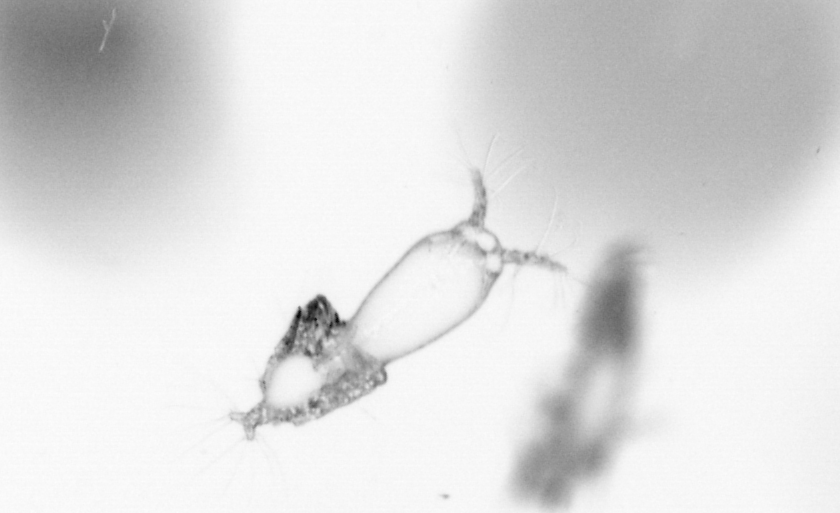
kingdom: Animalia
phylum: Arthropoda
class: Copepoda
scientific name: Copepoda
